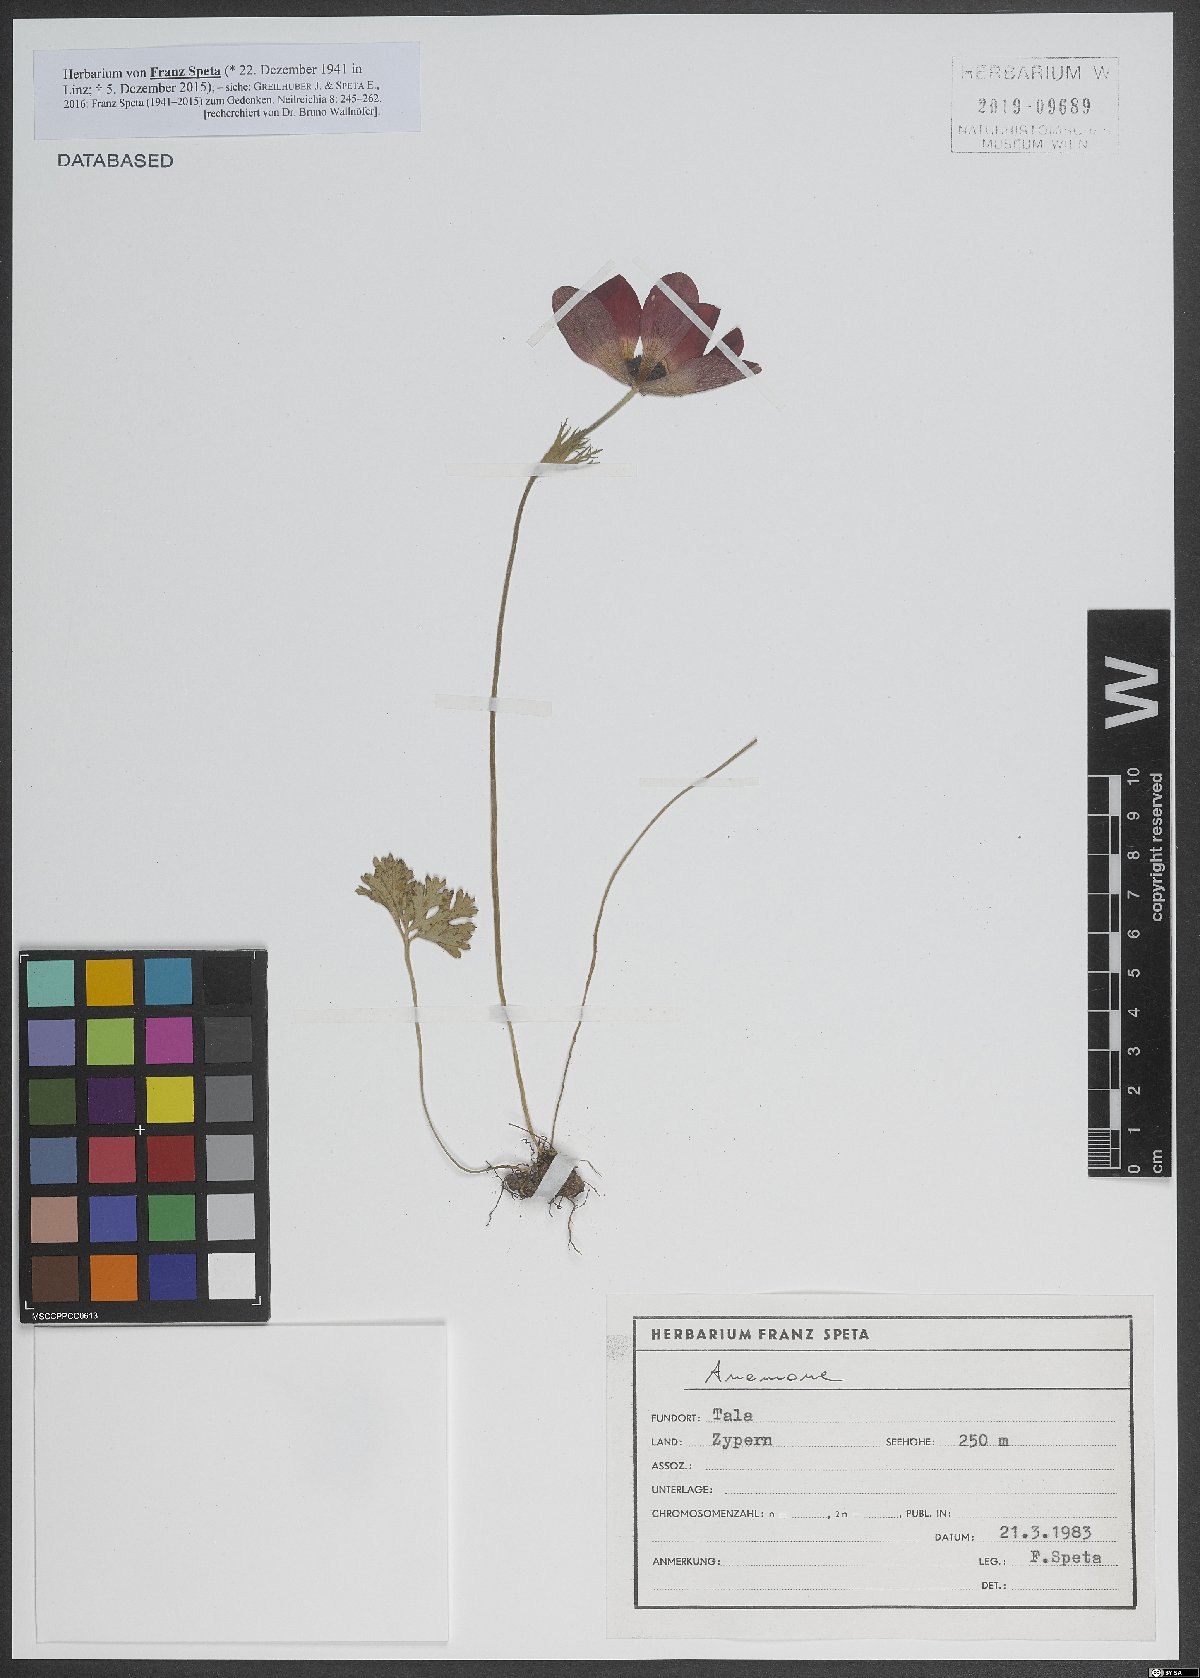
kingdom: Plantae
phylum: Tracheophyta
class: Magnoliopsida
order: Ranunculales
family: Ranunculaceae
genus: Anemone
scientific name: Anemone
